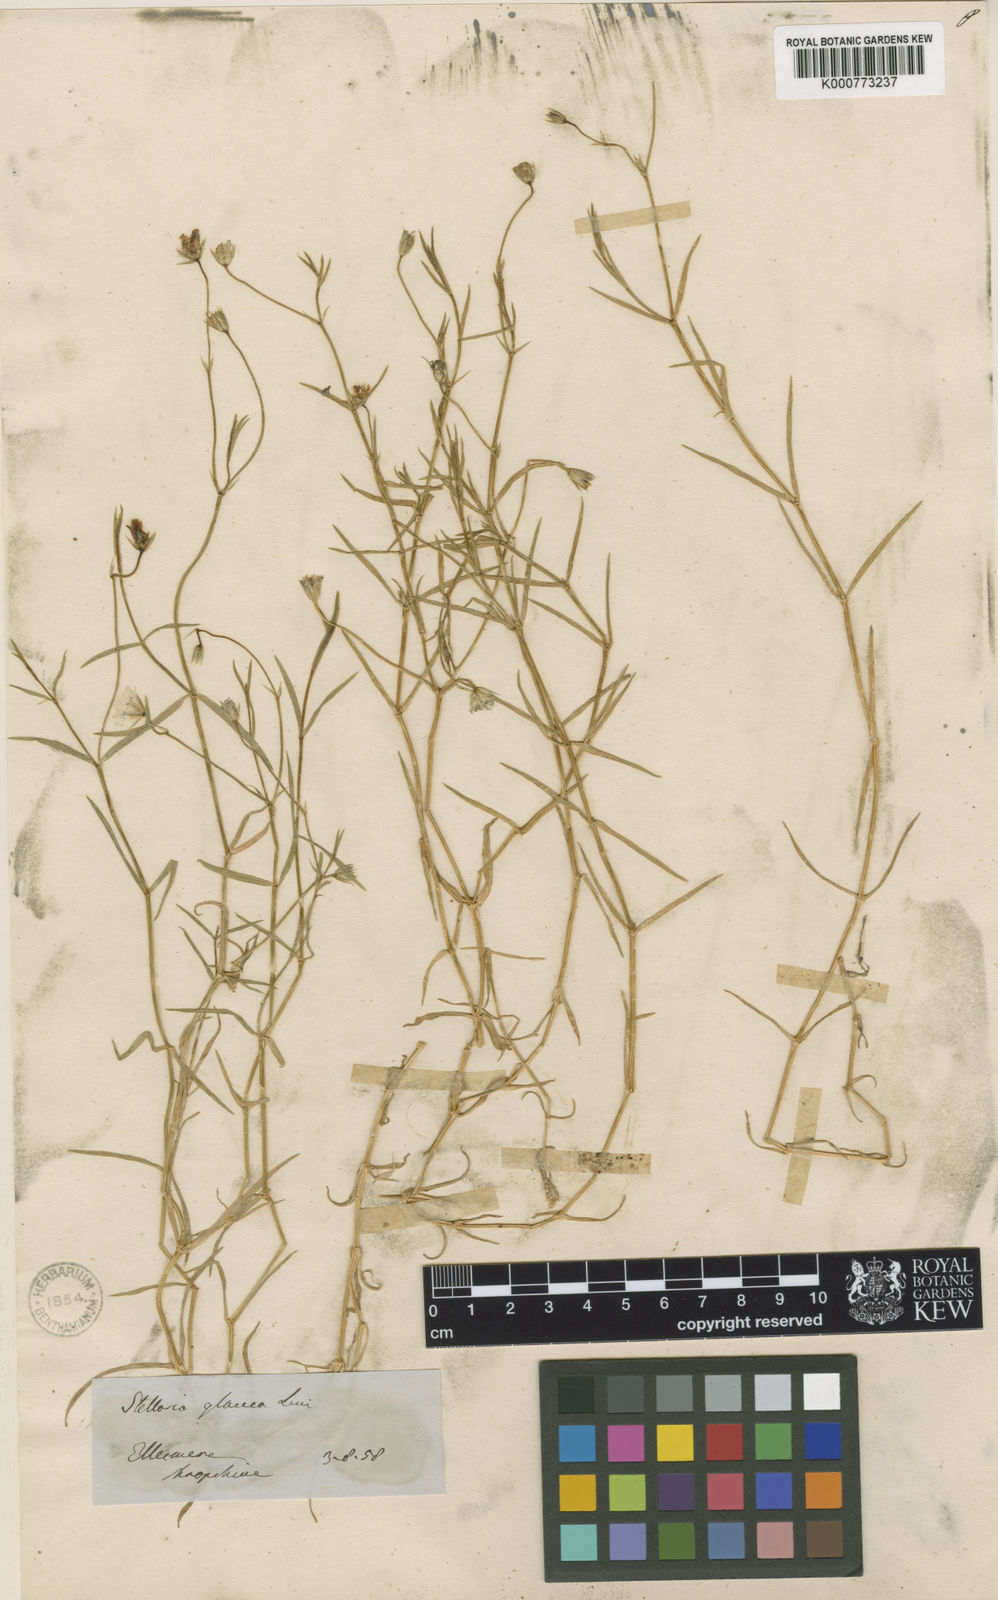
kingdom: Plantae
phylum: Tracheophyta
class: Magnoliopsida
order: Caryophyllales
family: Caryophyllaceae
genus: Stellaria
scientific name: Stellaria
